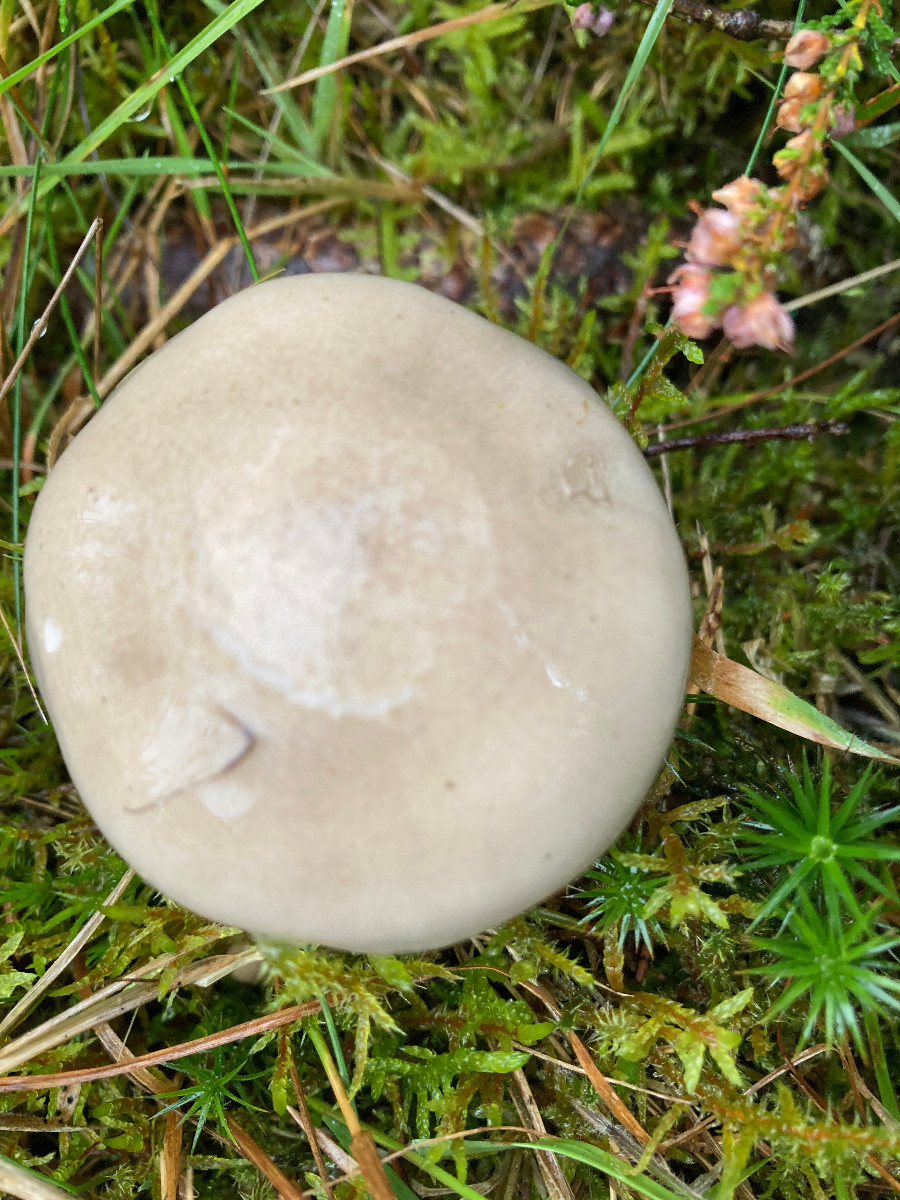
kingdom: Fungi
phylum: Basidiomycota
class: Agaricomycetes
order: Agaricales
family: Hygrophoraceae
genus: Hygrophorus
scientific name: Hygrophorus agathosmus
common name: vellugtende sneglehat
